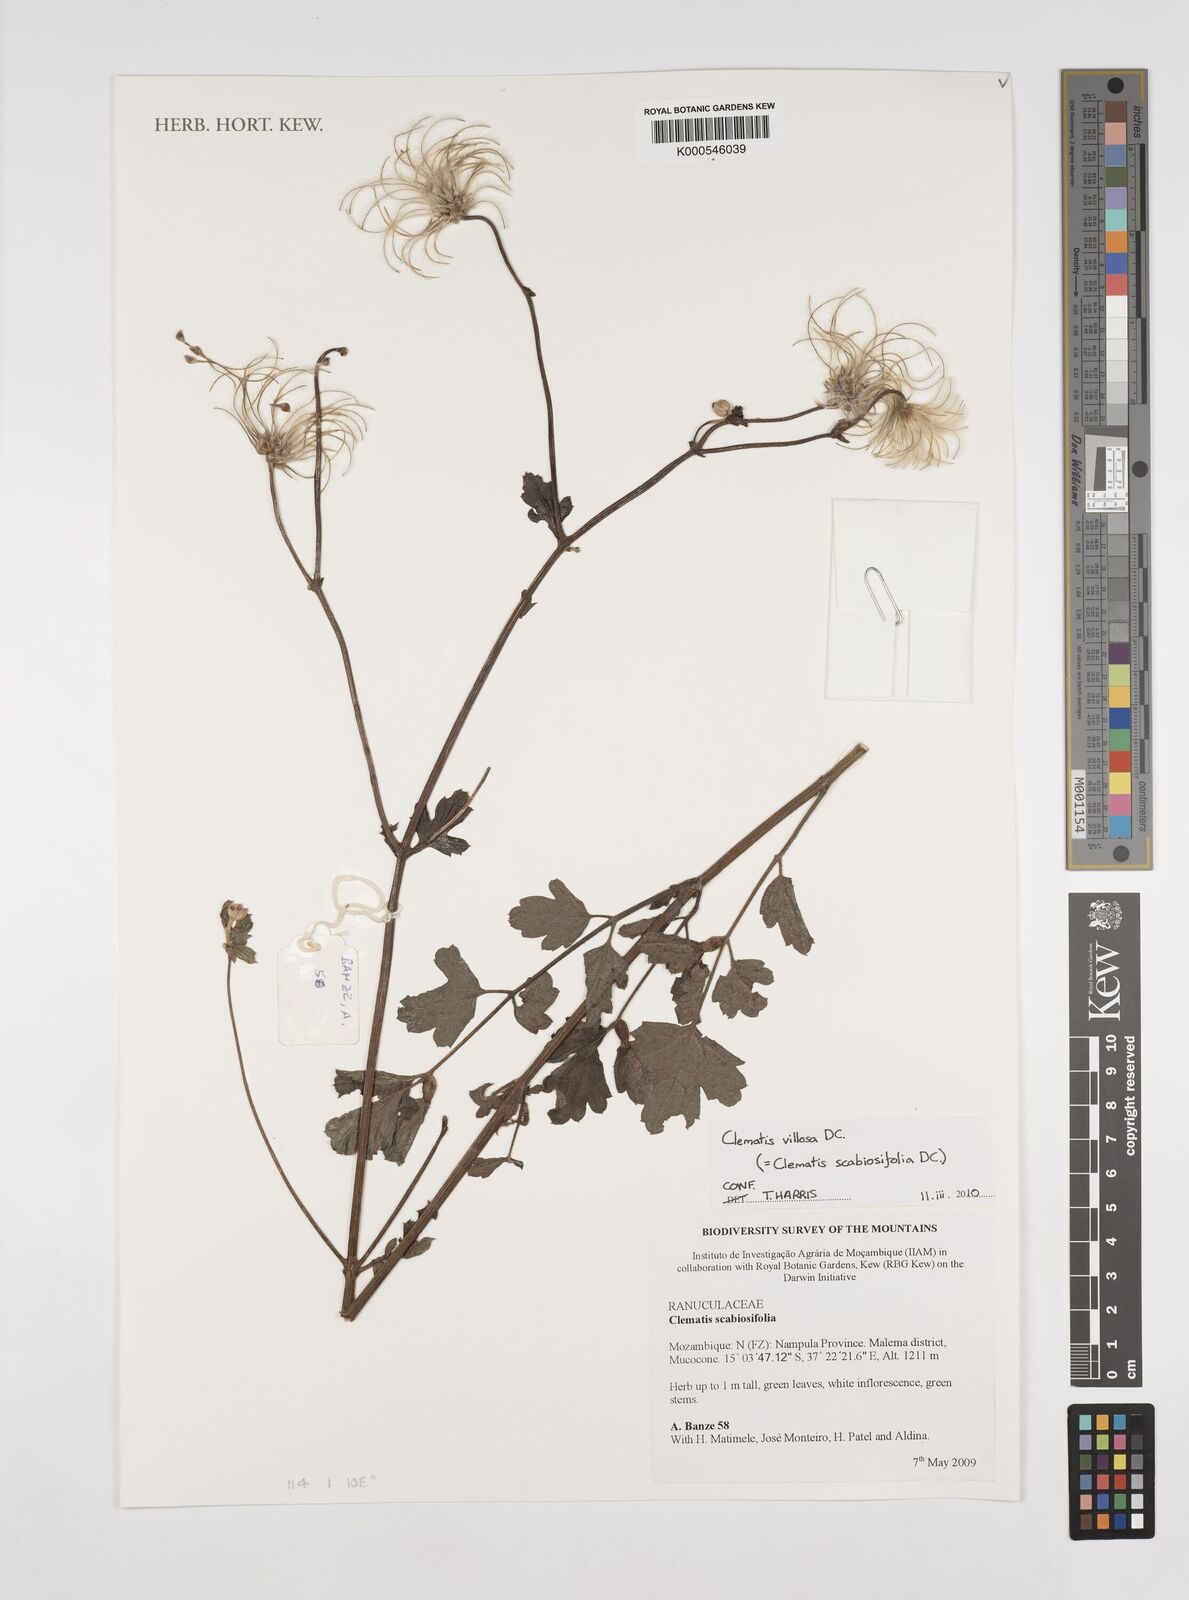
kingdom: Plantae
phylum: Tracheophyta
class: Magnoliopsida
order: Ranunculales
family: Ranunculaceae
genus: Clematis
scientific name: Clematis villosa
